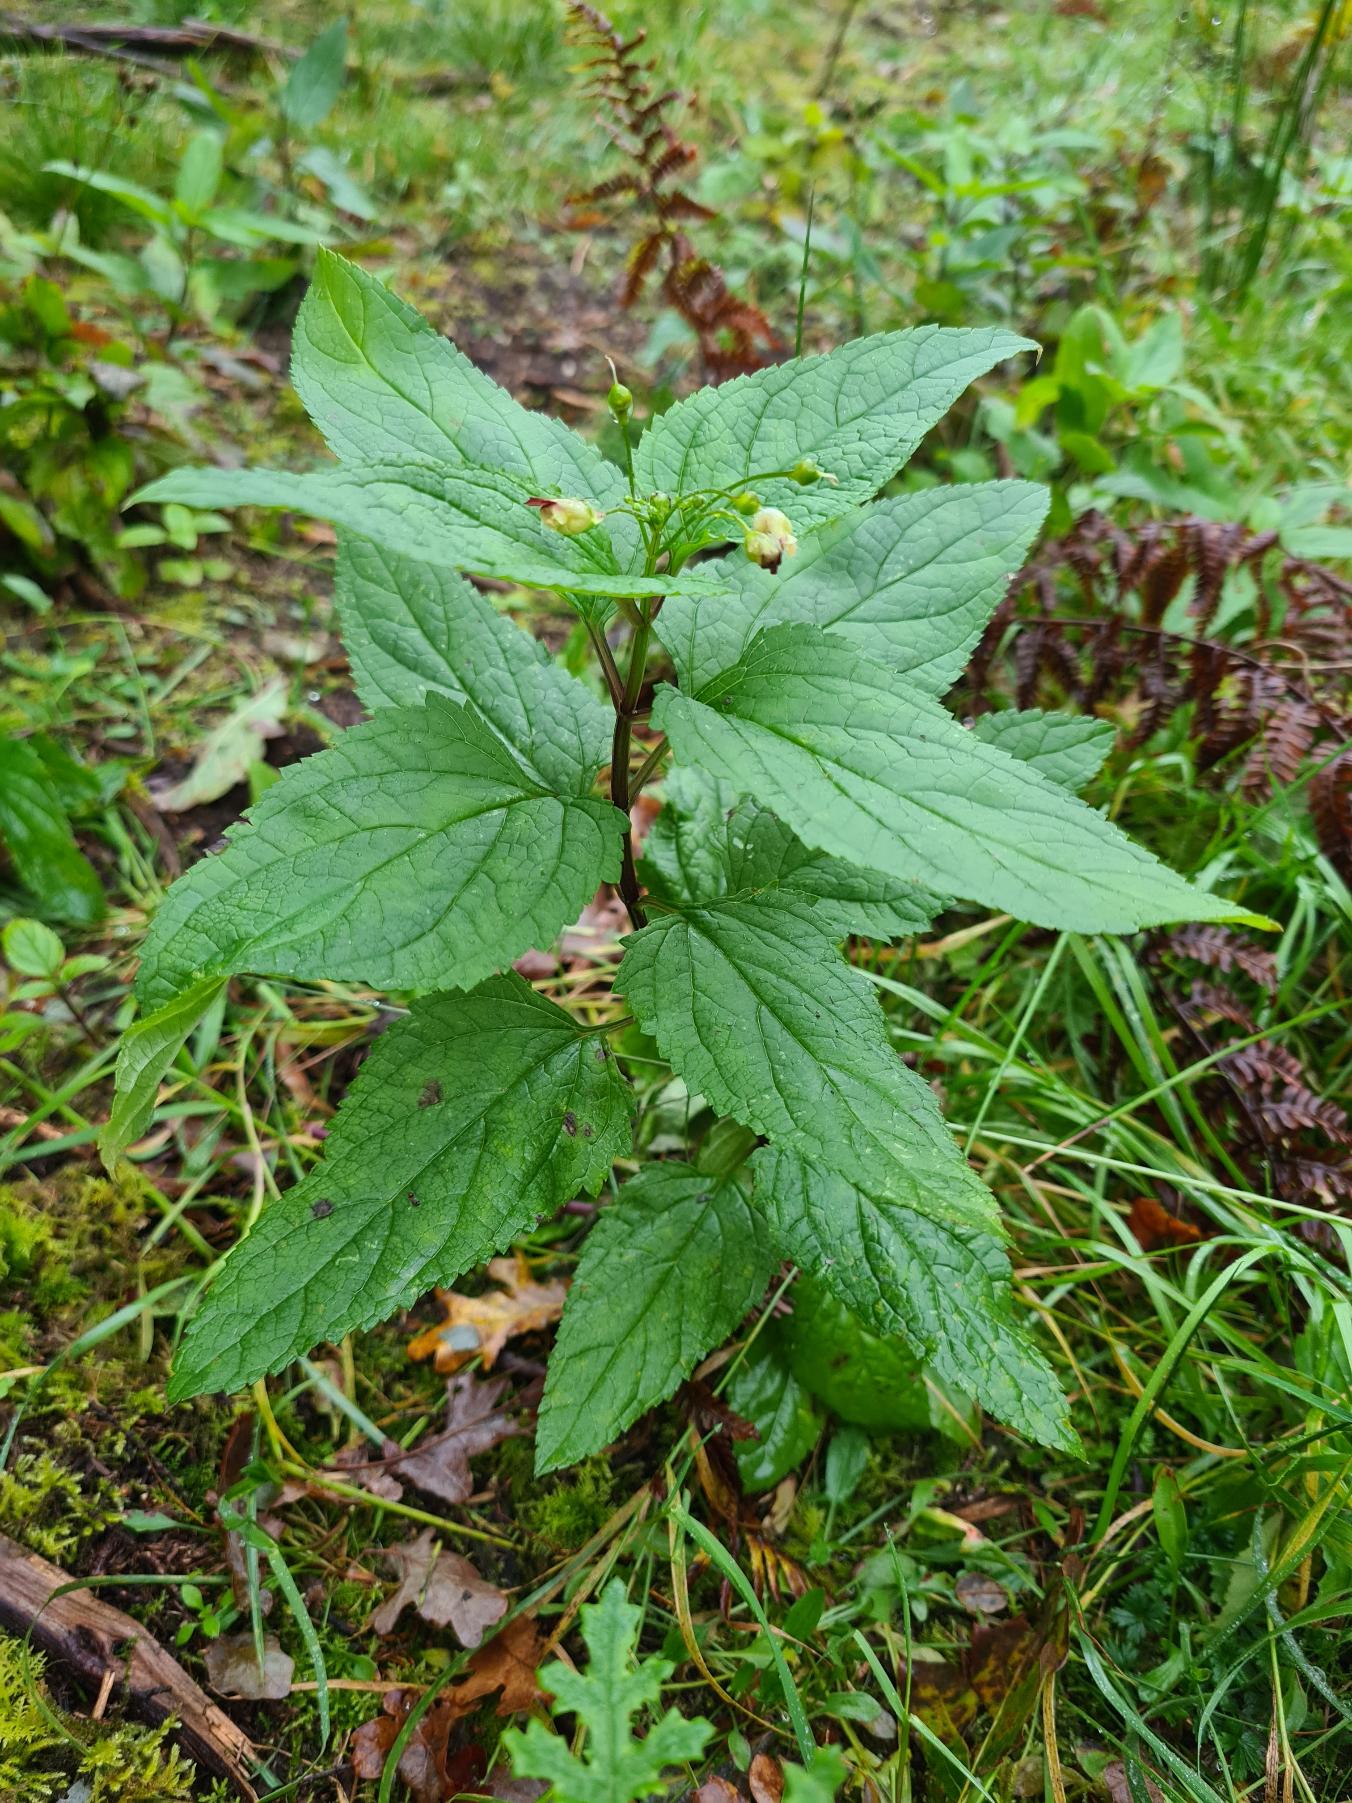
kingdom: Plantae
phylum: Tracheophyta
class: Magnoliopsida
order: Lamiales
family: Scrophulariaceae
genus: Scrophularia
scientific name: Scrophularia nodosa
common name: Knoldet brunrod
